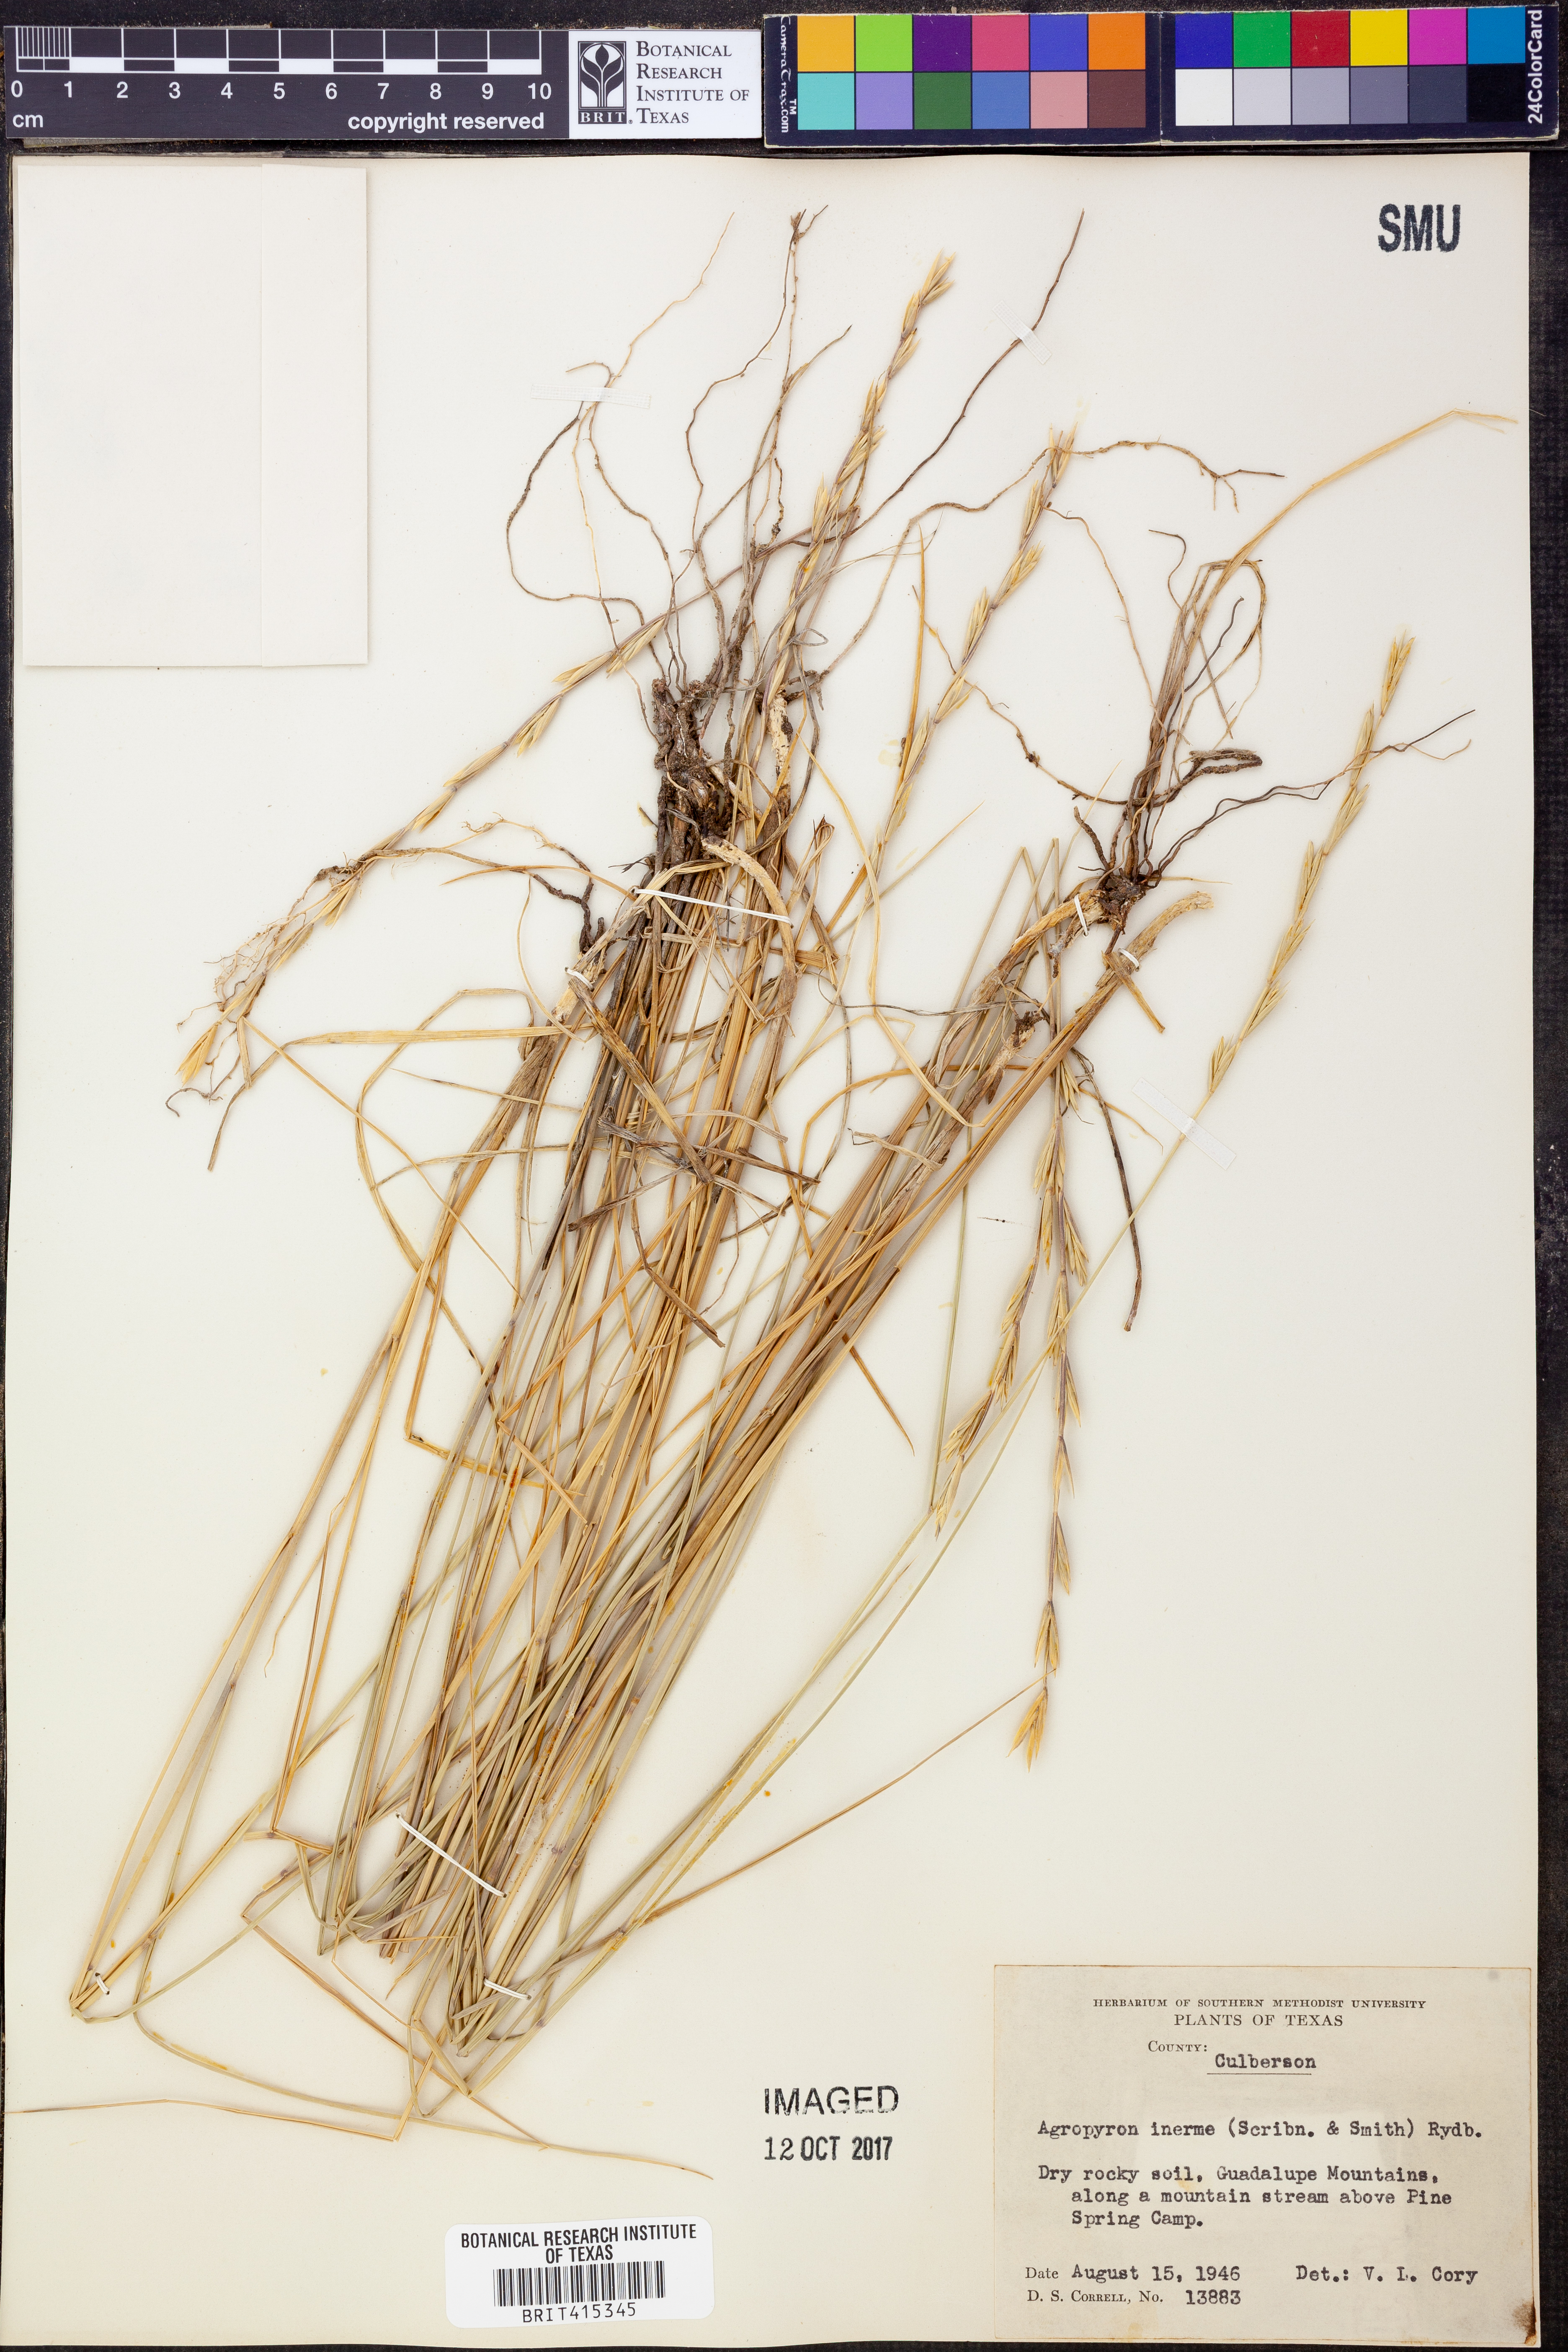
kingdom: Plantae
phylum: Tracheophyta
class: Liliopsida
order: Poales
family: Poaceae
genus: Pseudoroegneria
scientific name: Pseudoroegneria spicata
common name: Bluebunch wheatgrass
